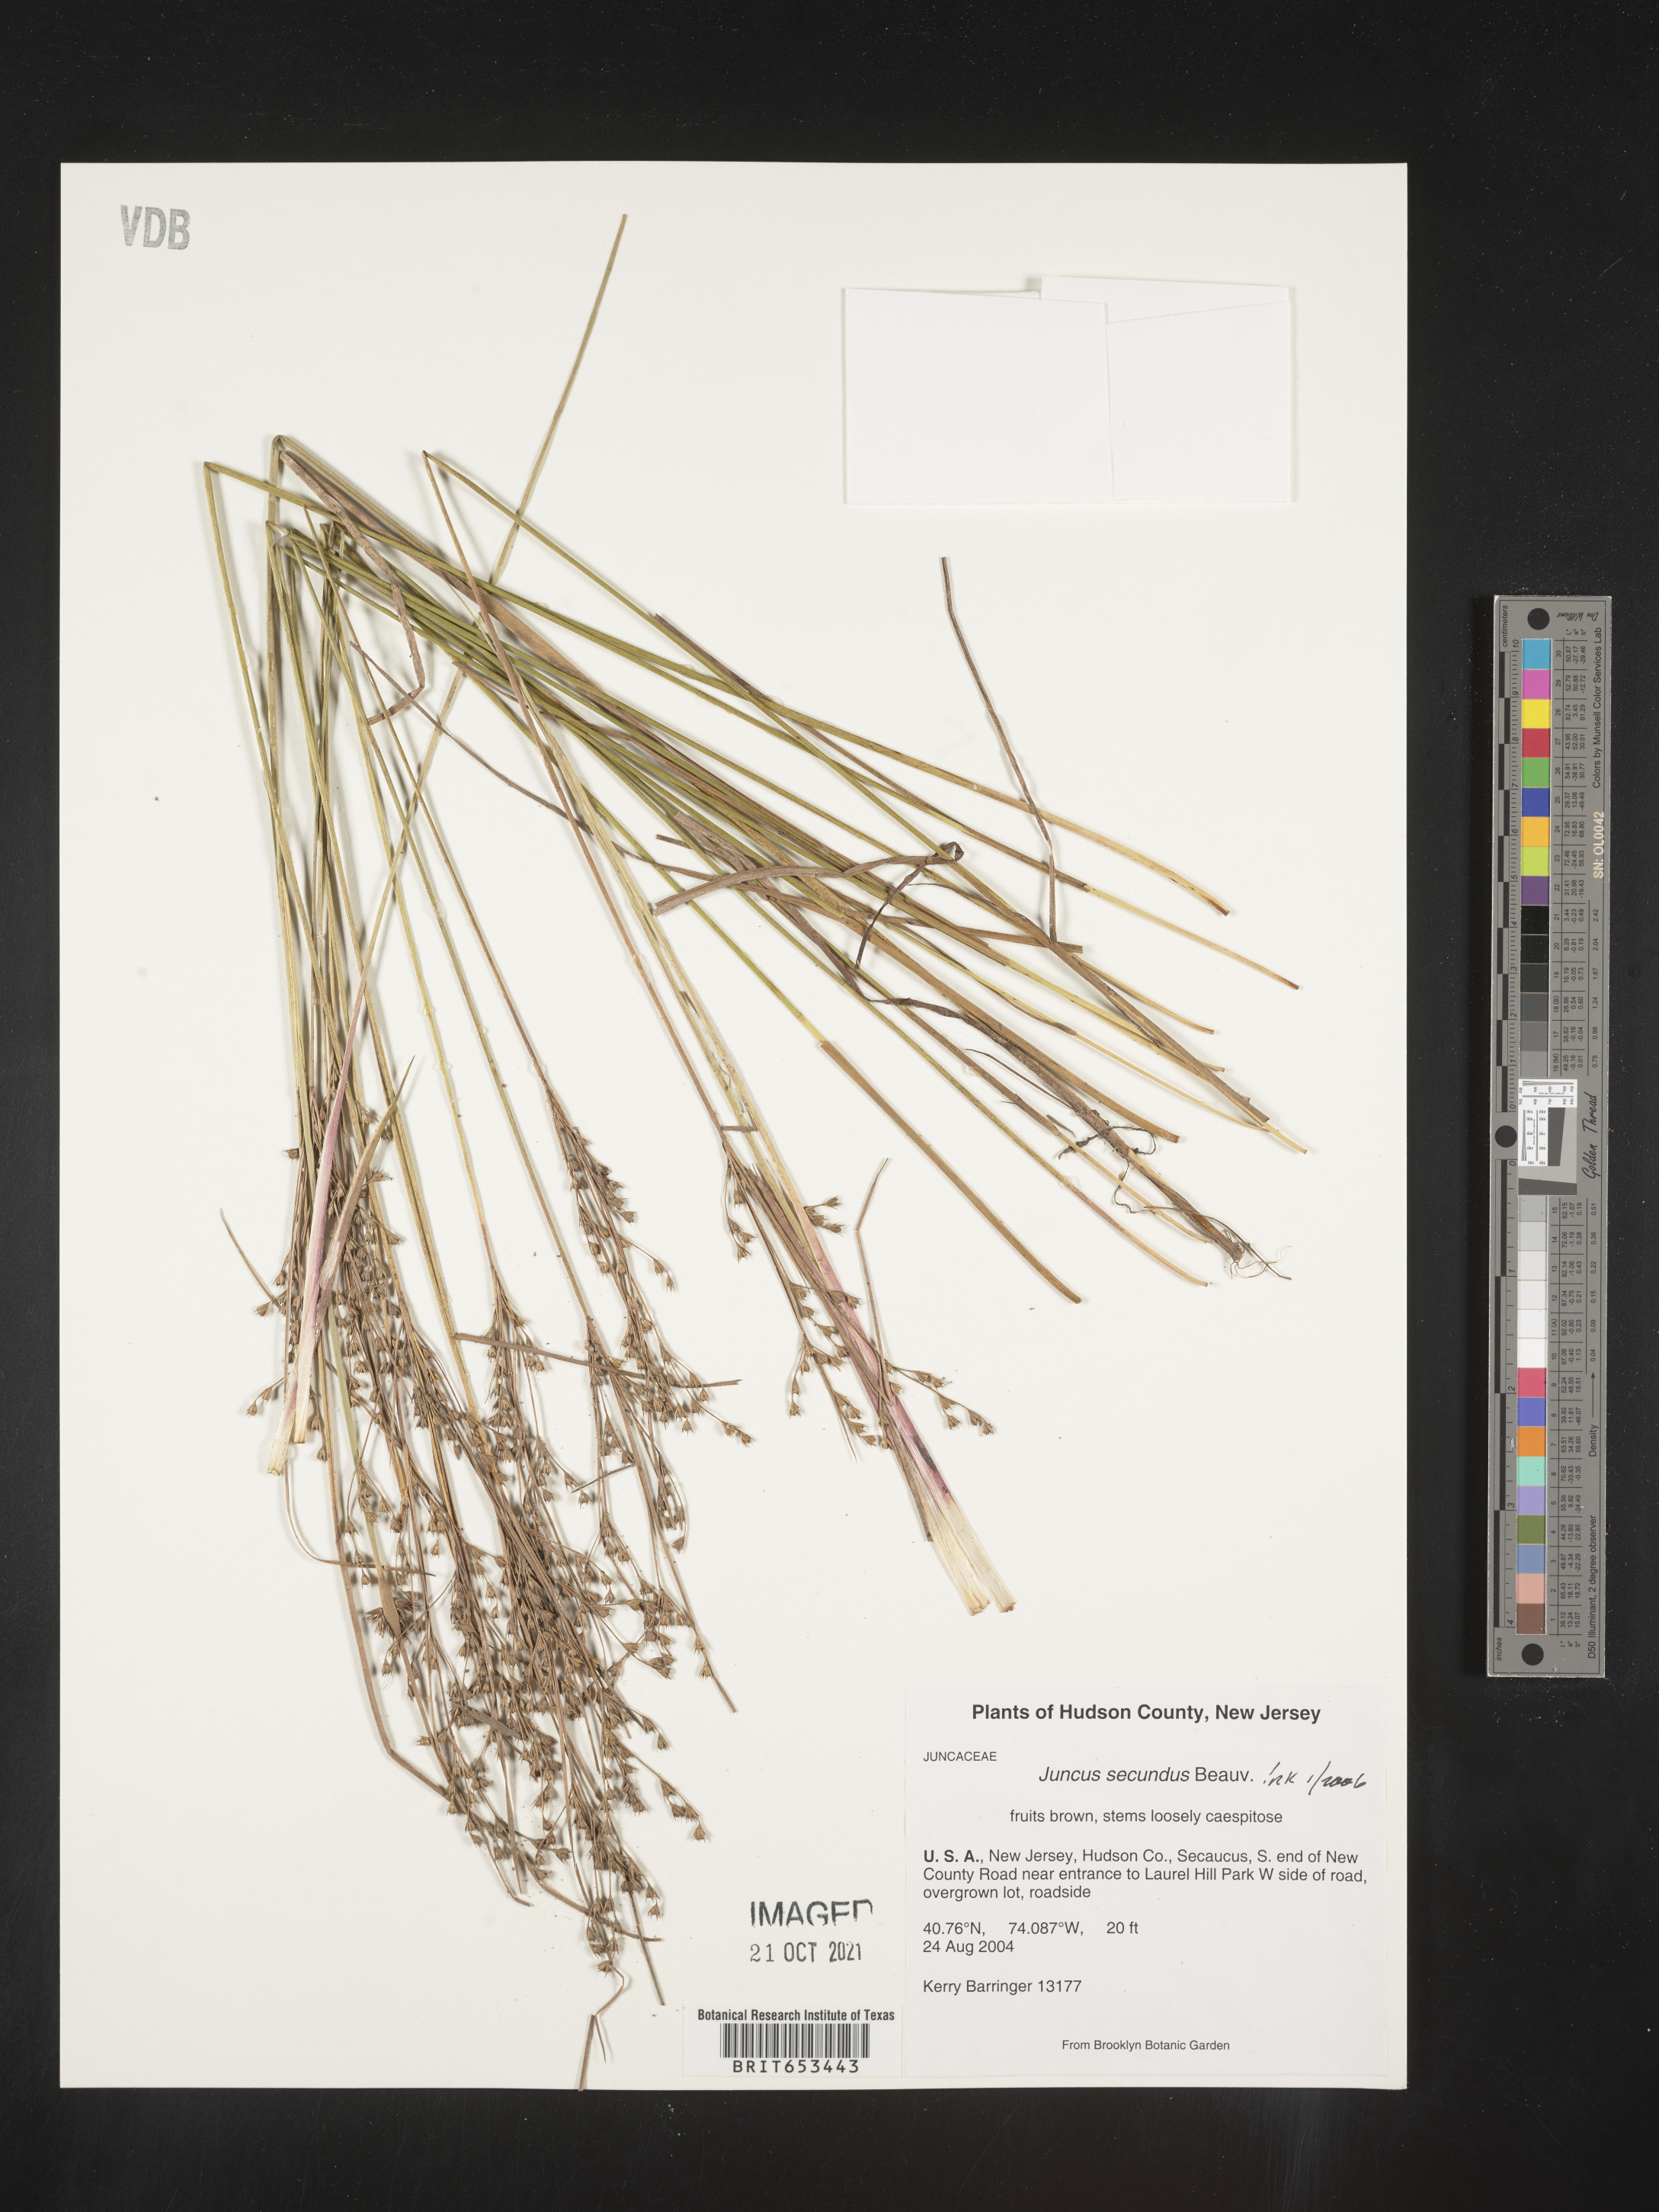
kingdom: Plantae
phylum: Tracheophyta
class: Liliopsida
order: Poales
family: Juncaceae
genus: Juncus
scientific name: Juncus secundus
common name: Lopsided rush
